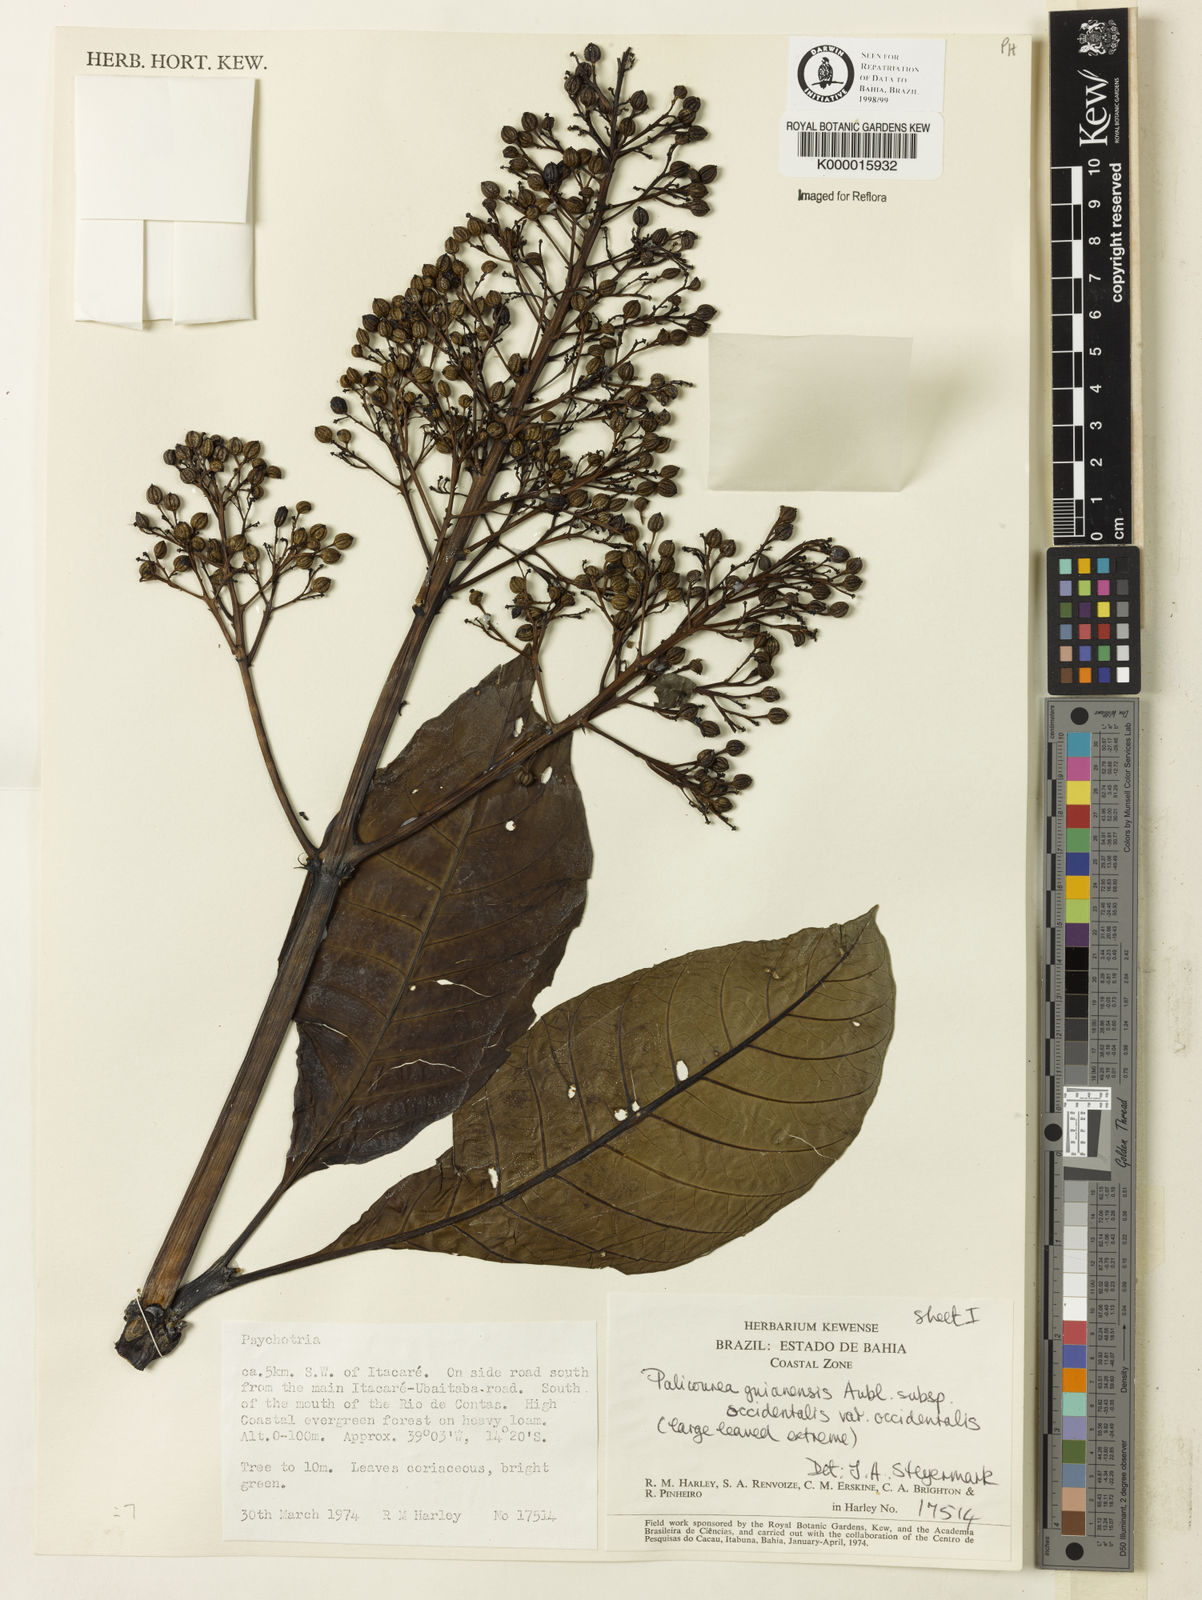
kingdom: Plantae
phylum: Tracheophyta
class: Magnoliopsida
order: Gentianales
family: Rubiaceae
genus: Palicourea
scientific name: Palicourea guianensis
